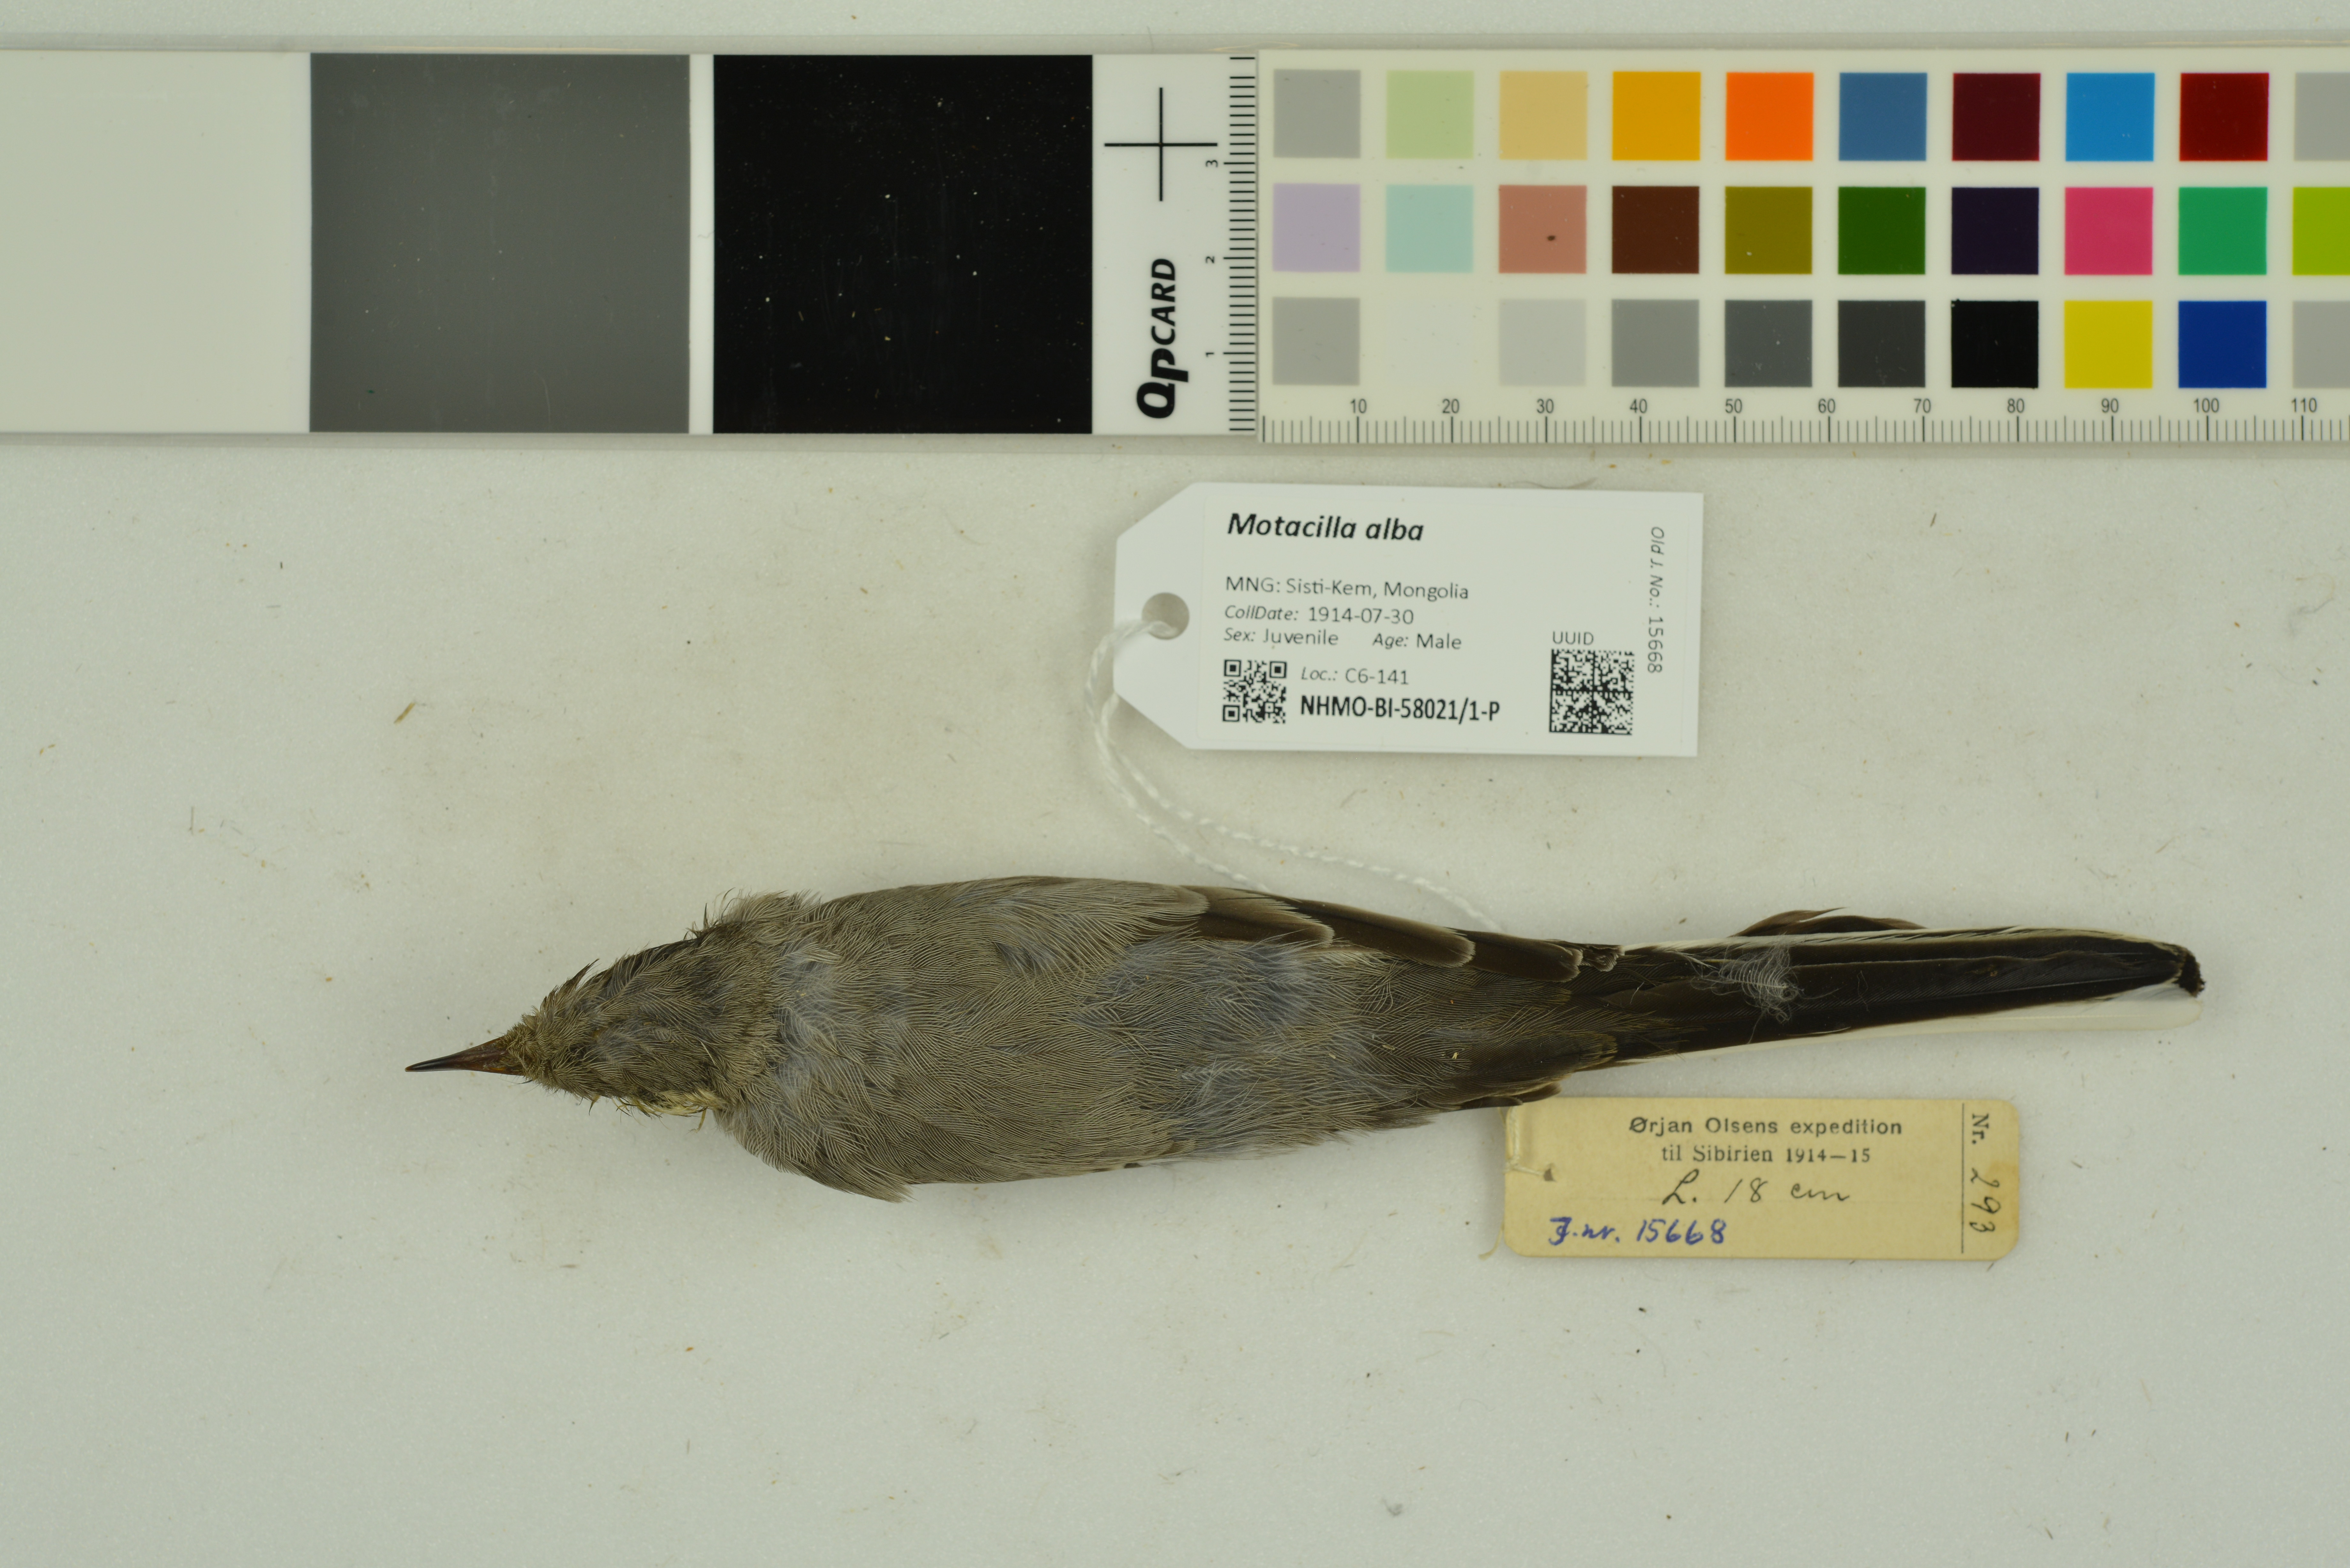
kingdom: Animalia
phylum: Chordata
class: Aves
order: Passeriformes
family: Motacillidae
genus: Motacilla
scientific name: Motacilla alba
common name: White wagtail
